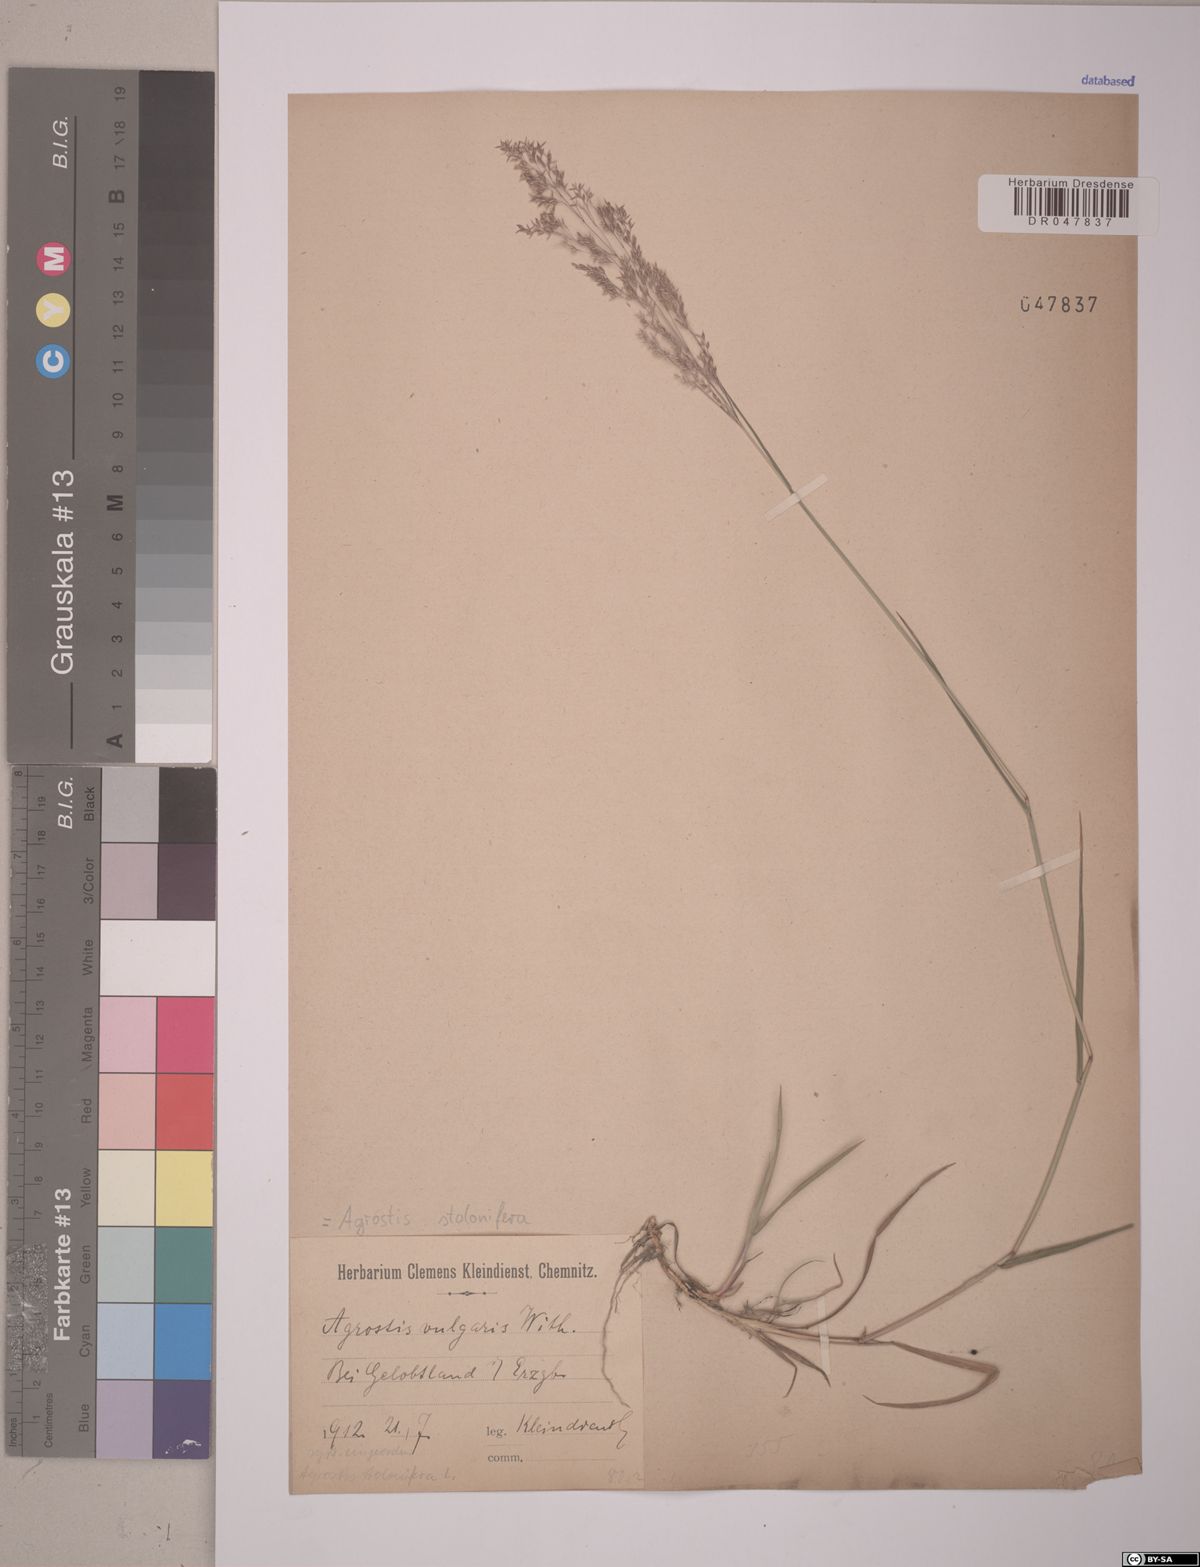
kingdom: Plantae
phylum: Tracheophyta
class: Liliopsida
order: Poales
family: Poaceae
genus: Agrostis
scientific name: Agrostis stolonifera
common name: Creeping bentgrass
